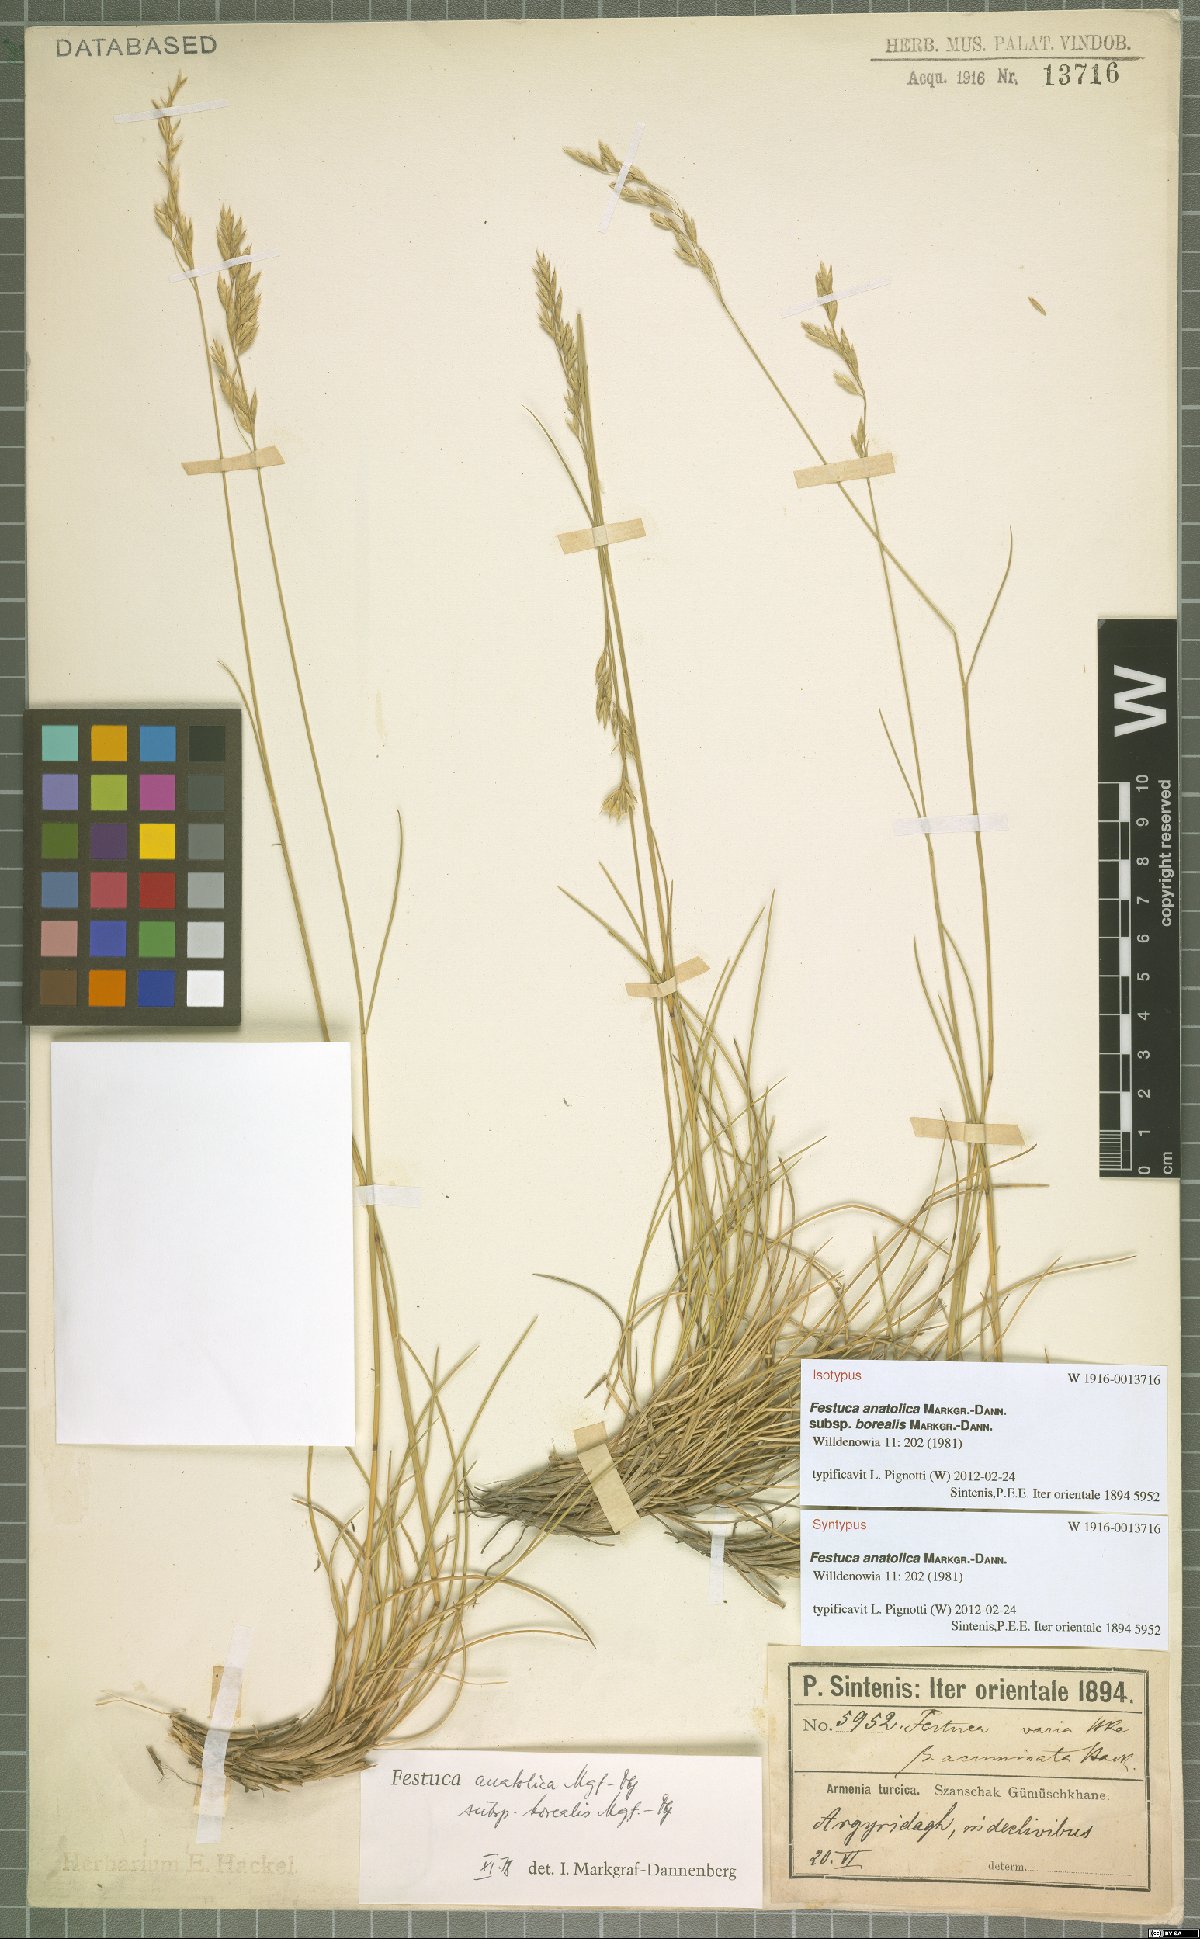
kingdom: Plantae
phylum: Tracheophyta
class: Liliopsida
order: Poales
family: Poaceae
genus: Festuca
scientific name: Festuca anatolica
